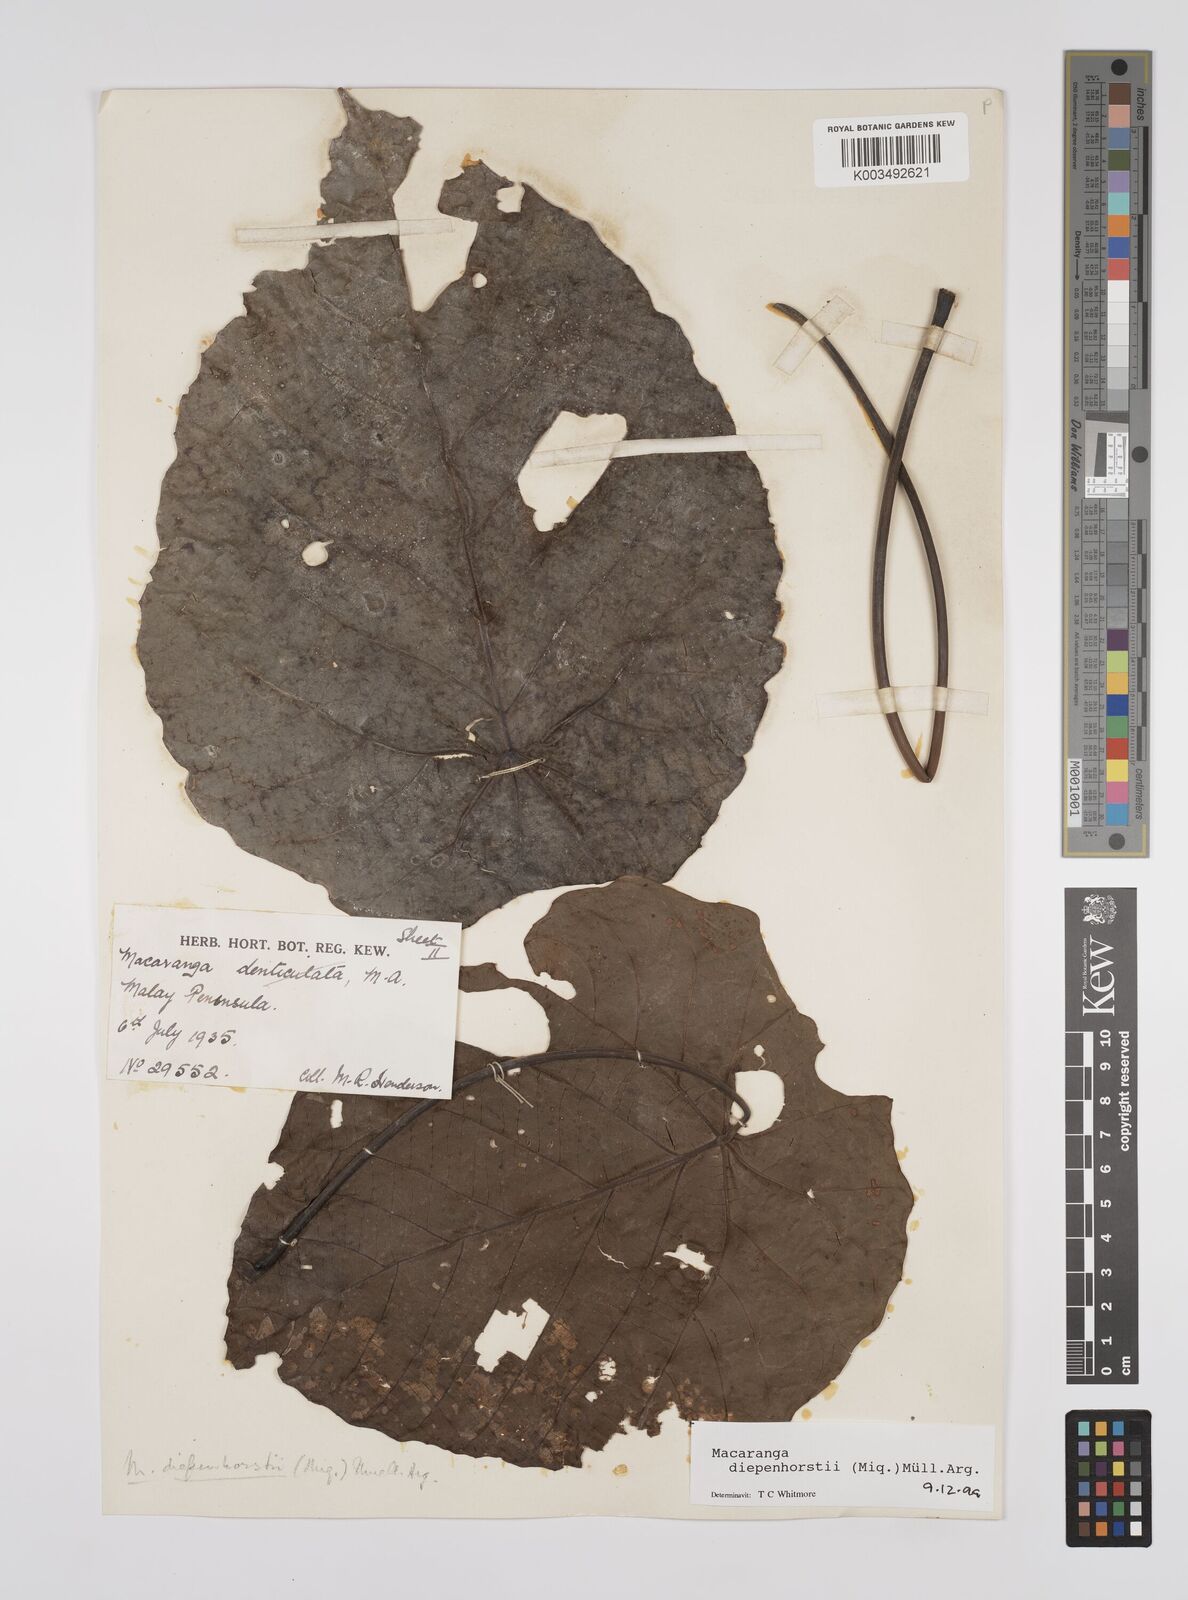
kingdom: Plantae
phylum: Tracheophyta
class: Magnoliopsida
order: Malpighiales
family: Euphorbiaceae
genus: Macaranga
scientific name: Macaranga diepenhorstii
